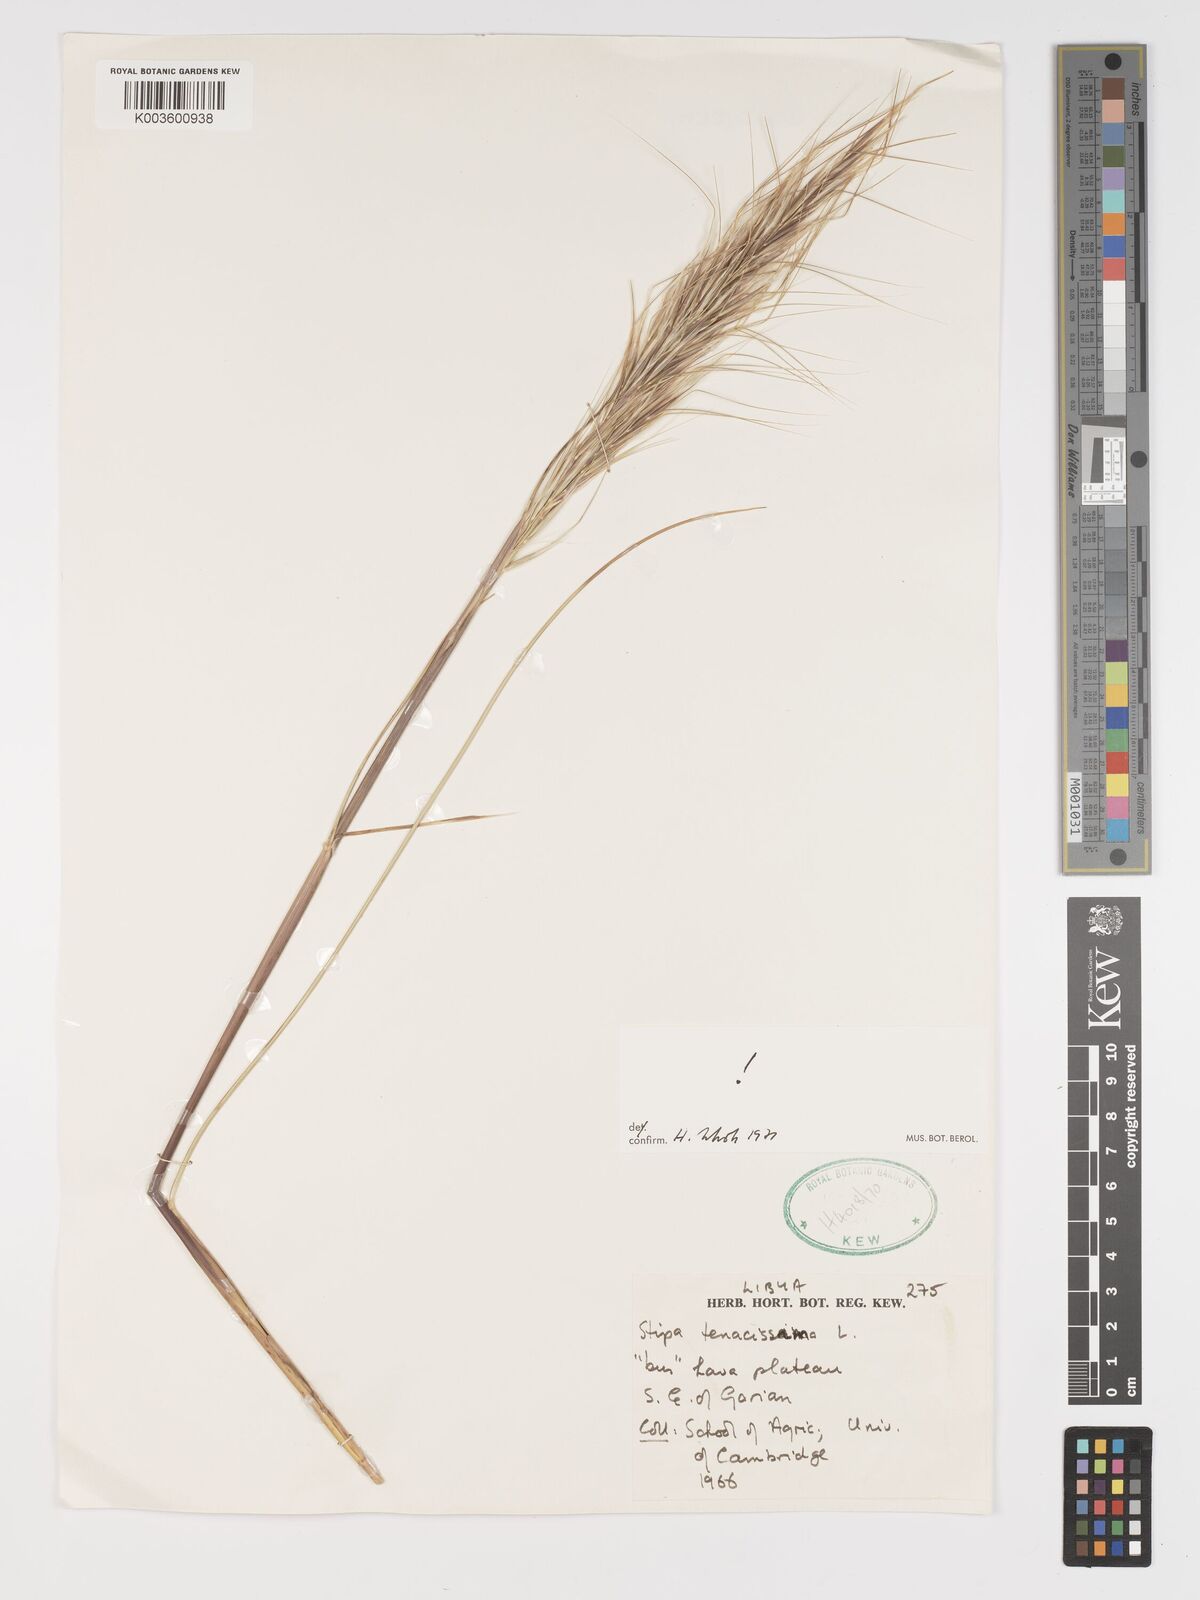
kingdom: Plantae
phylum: Tracheophyta
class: Liliopsida
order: Poales
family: Poaceae
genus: Macrochloa
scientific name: Macrochloa tenacissima
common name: Alfa grass
